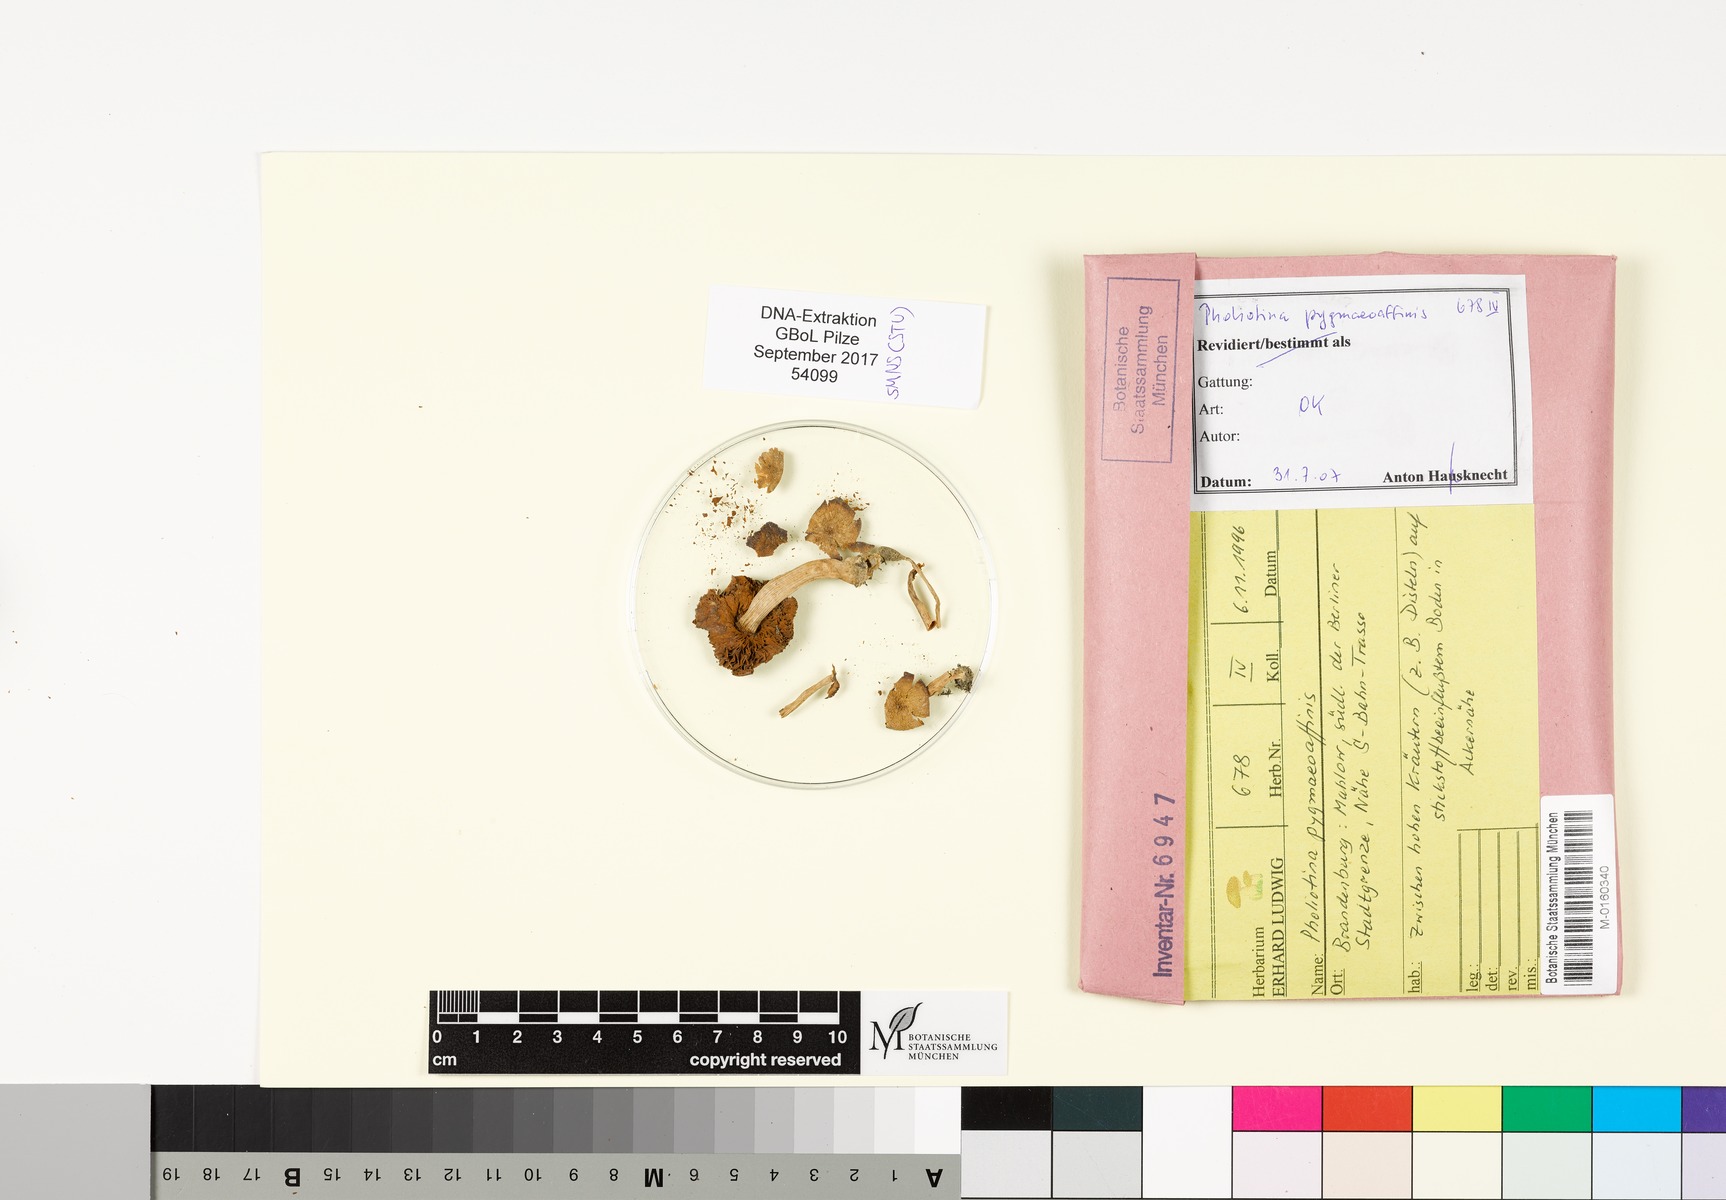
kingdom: Fungi
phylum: Basidiomycota
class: Agaricomycetes
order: Agaricales
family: Bolbitiaceae
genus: Conocybe
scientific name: Conocybe pygmaeoaffinis
